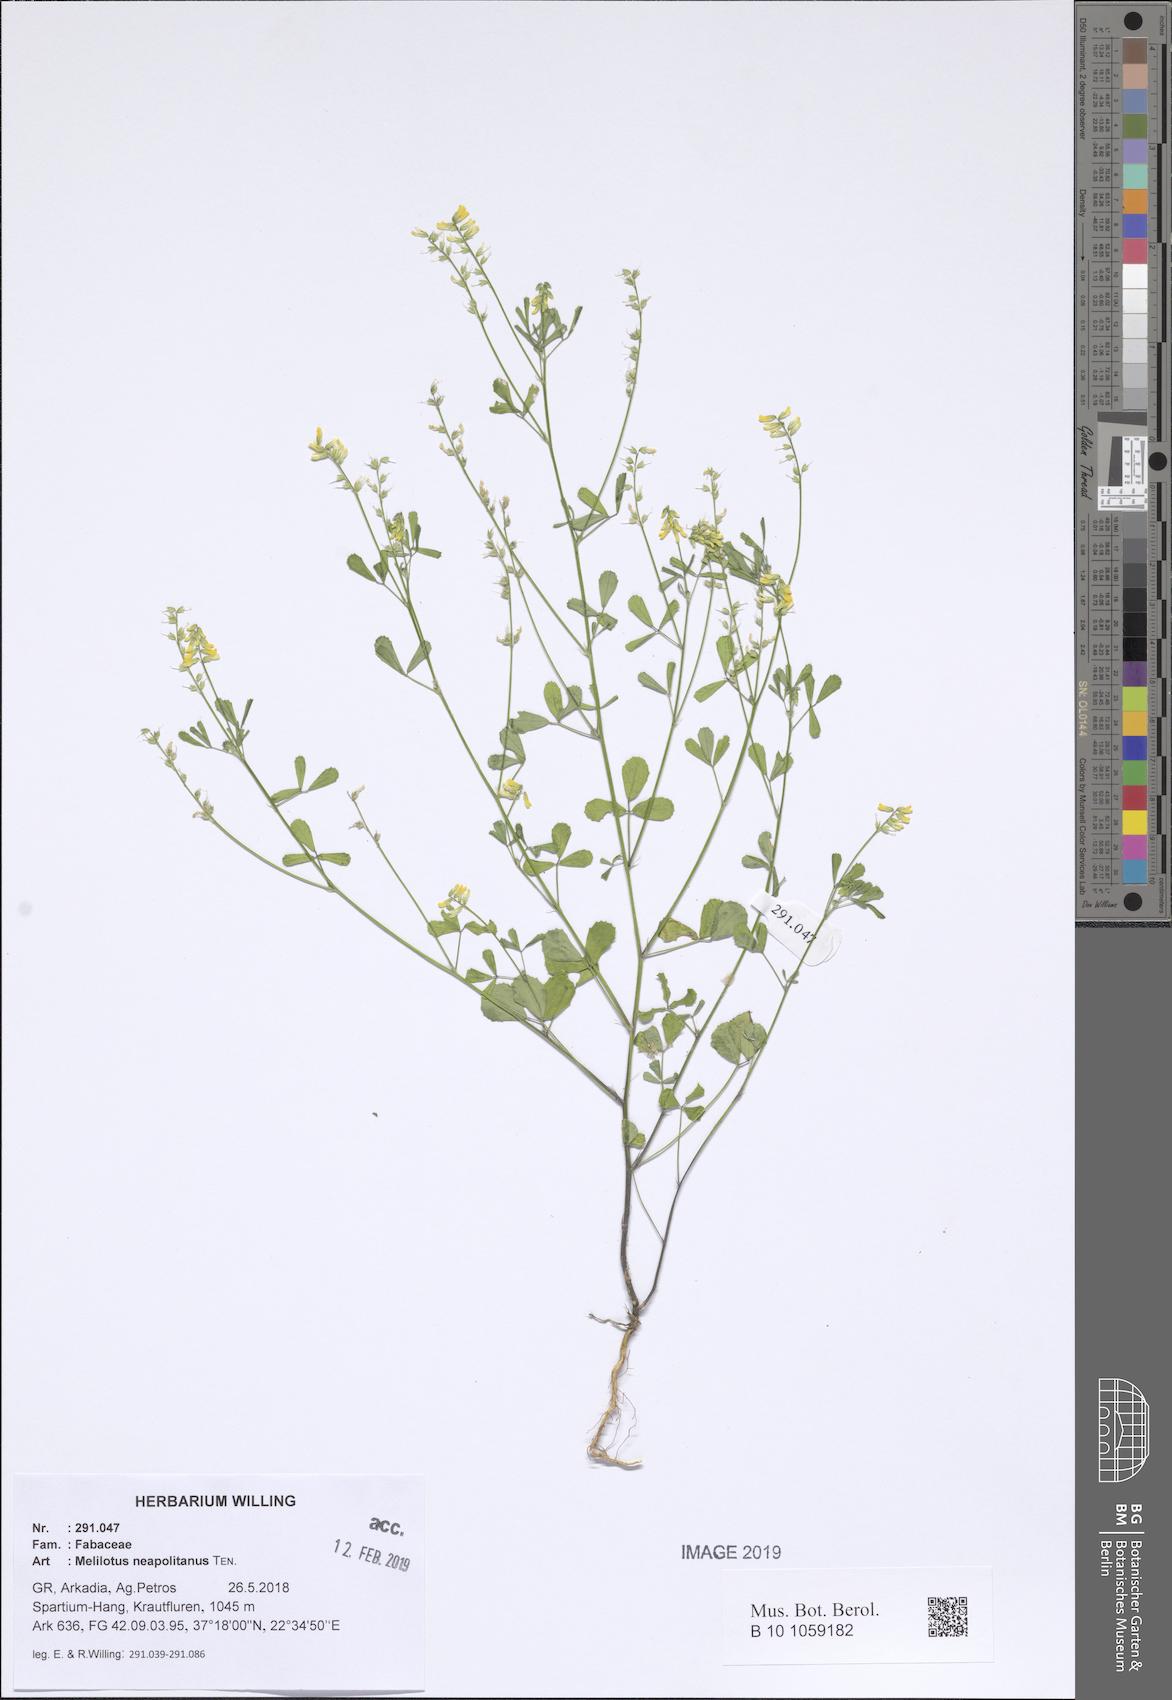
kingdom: Plantae
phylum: Tracheophyta
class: Magnoliopsida
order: Fabales
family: Fabaceae
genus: Melilotus
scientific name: Melilotus neapolitanus
